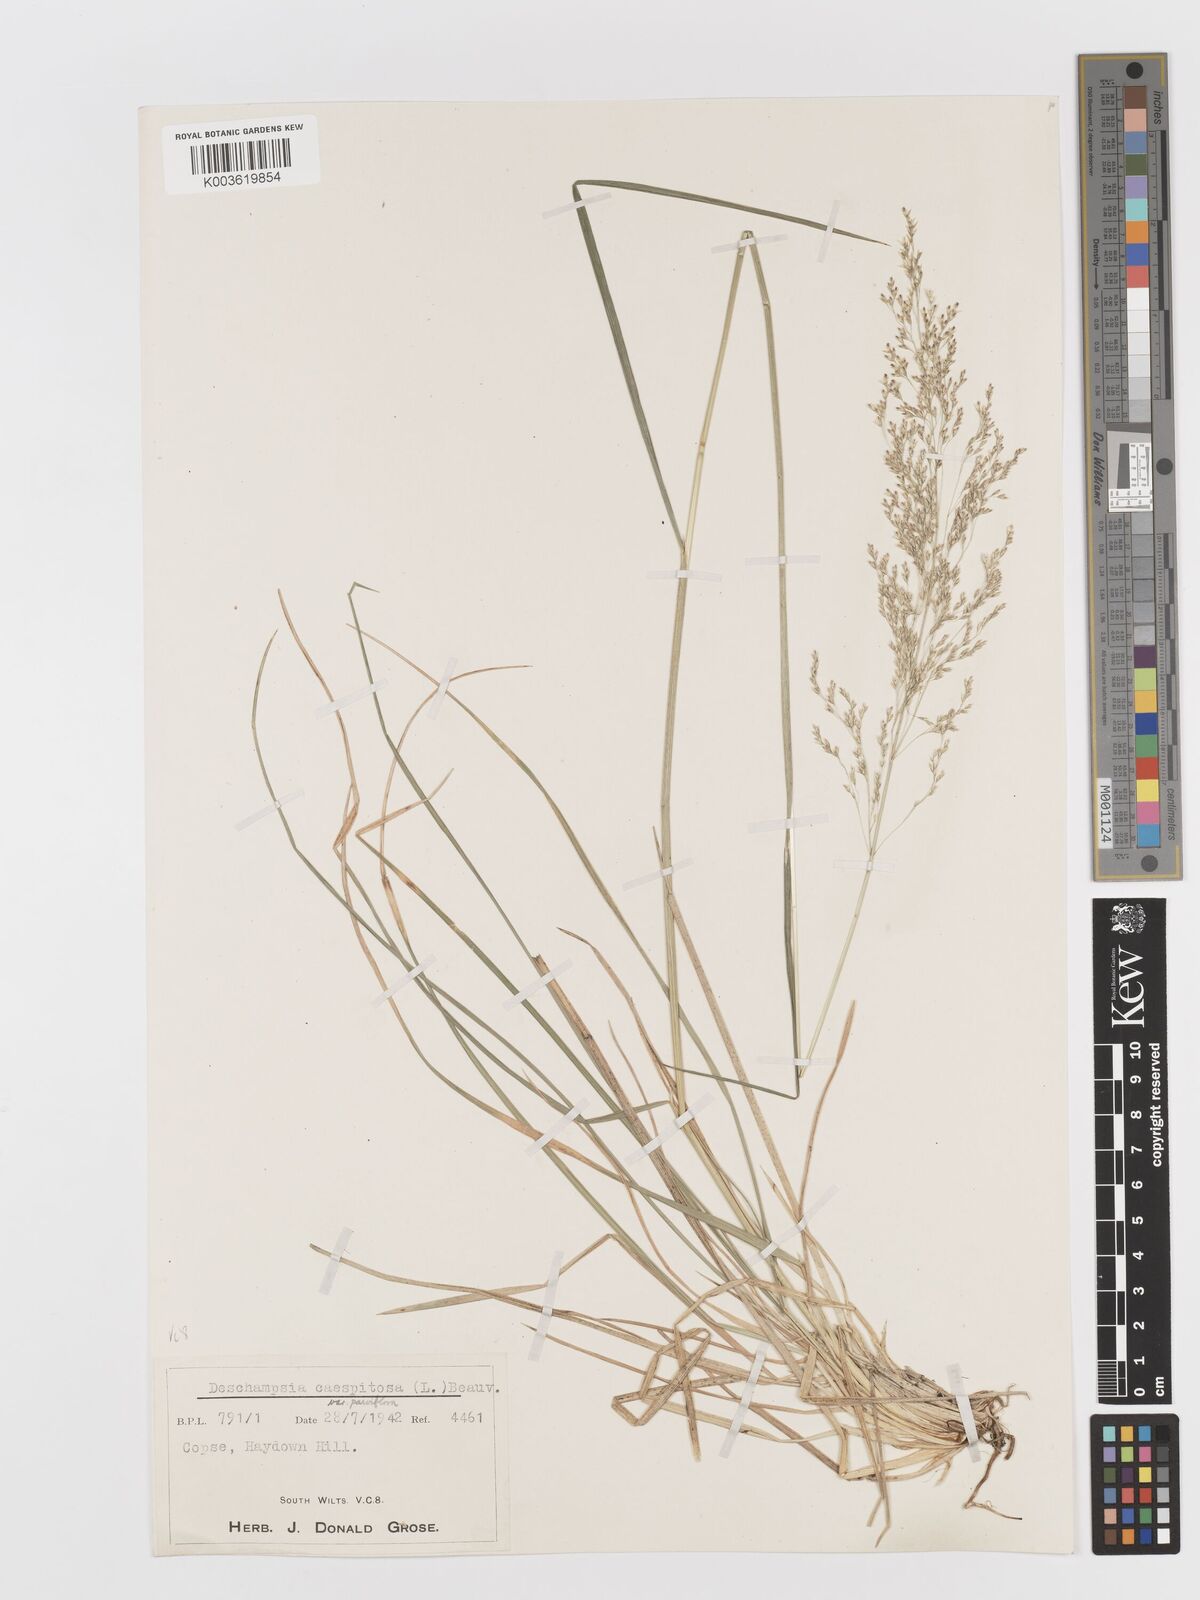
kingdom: Plantae
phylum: Tracheophyta
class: Liliopsida
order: Poales
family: Poaceae
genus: Deschampsia
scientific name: Deschampsia cespitosa
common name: Tufted hair-grass
